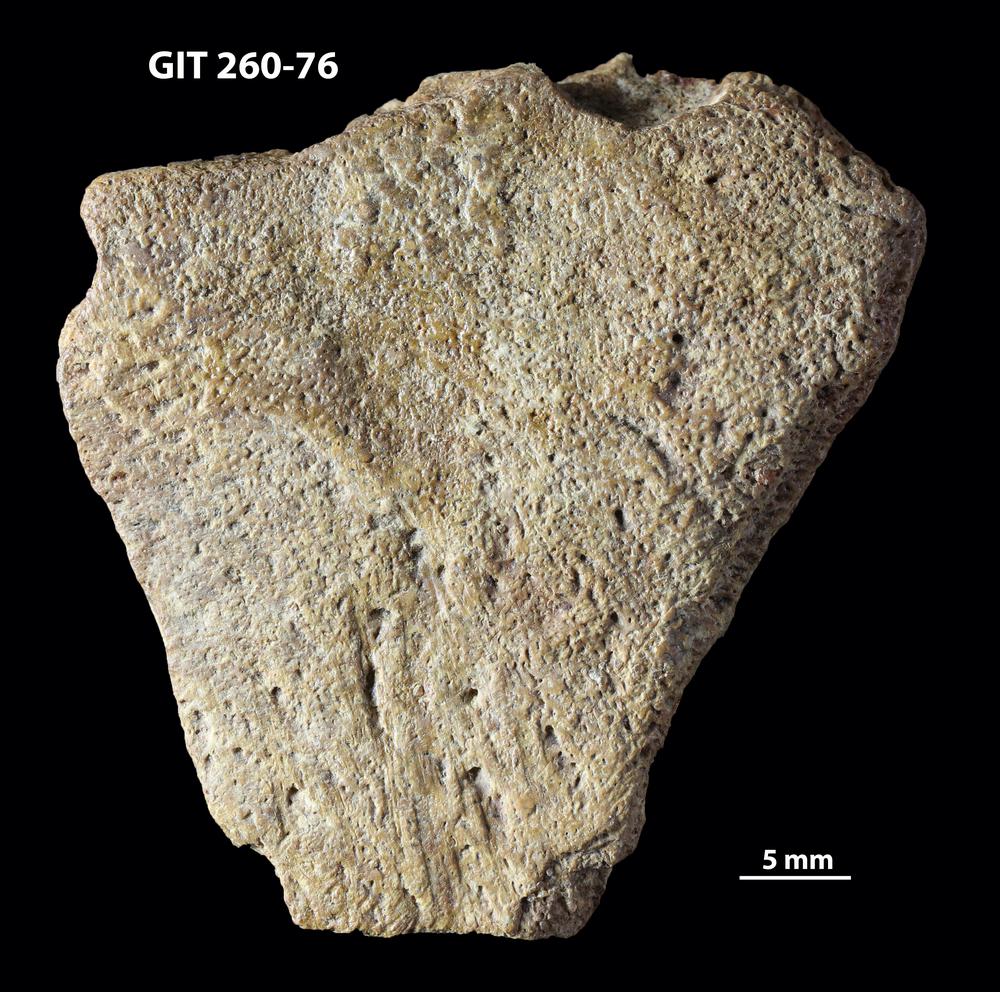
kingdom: Animalia
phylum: Chordata
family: Homostiidae
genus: Homostius
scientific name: Homostius
